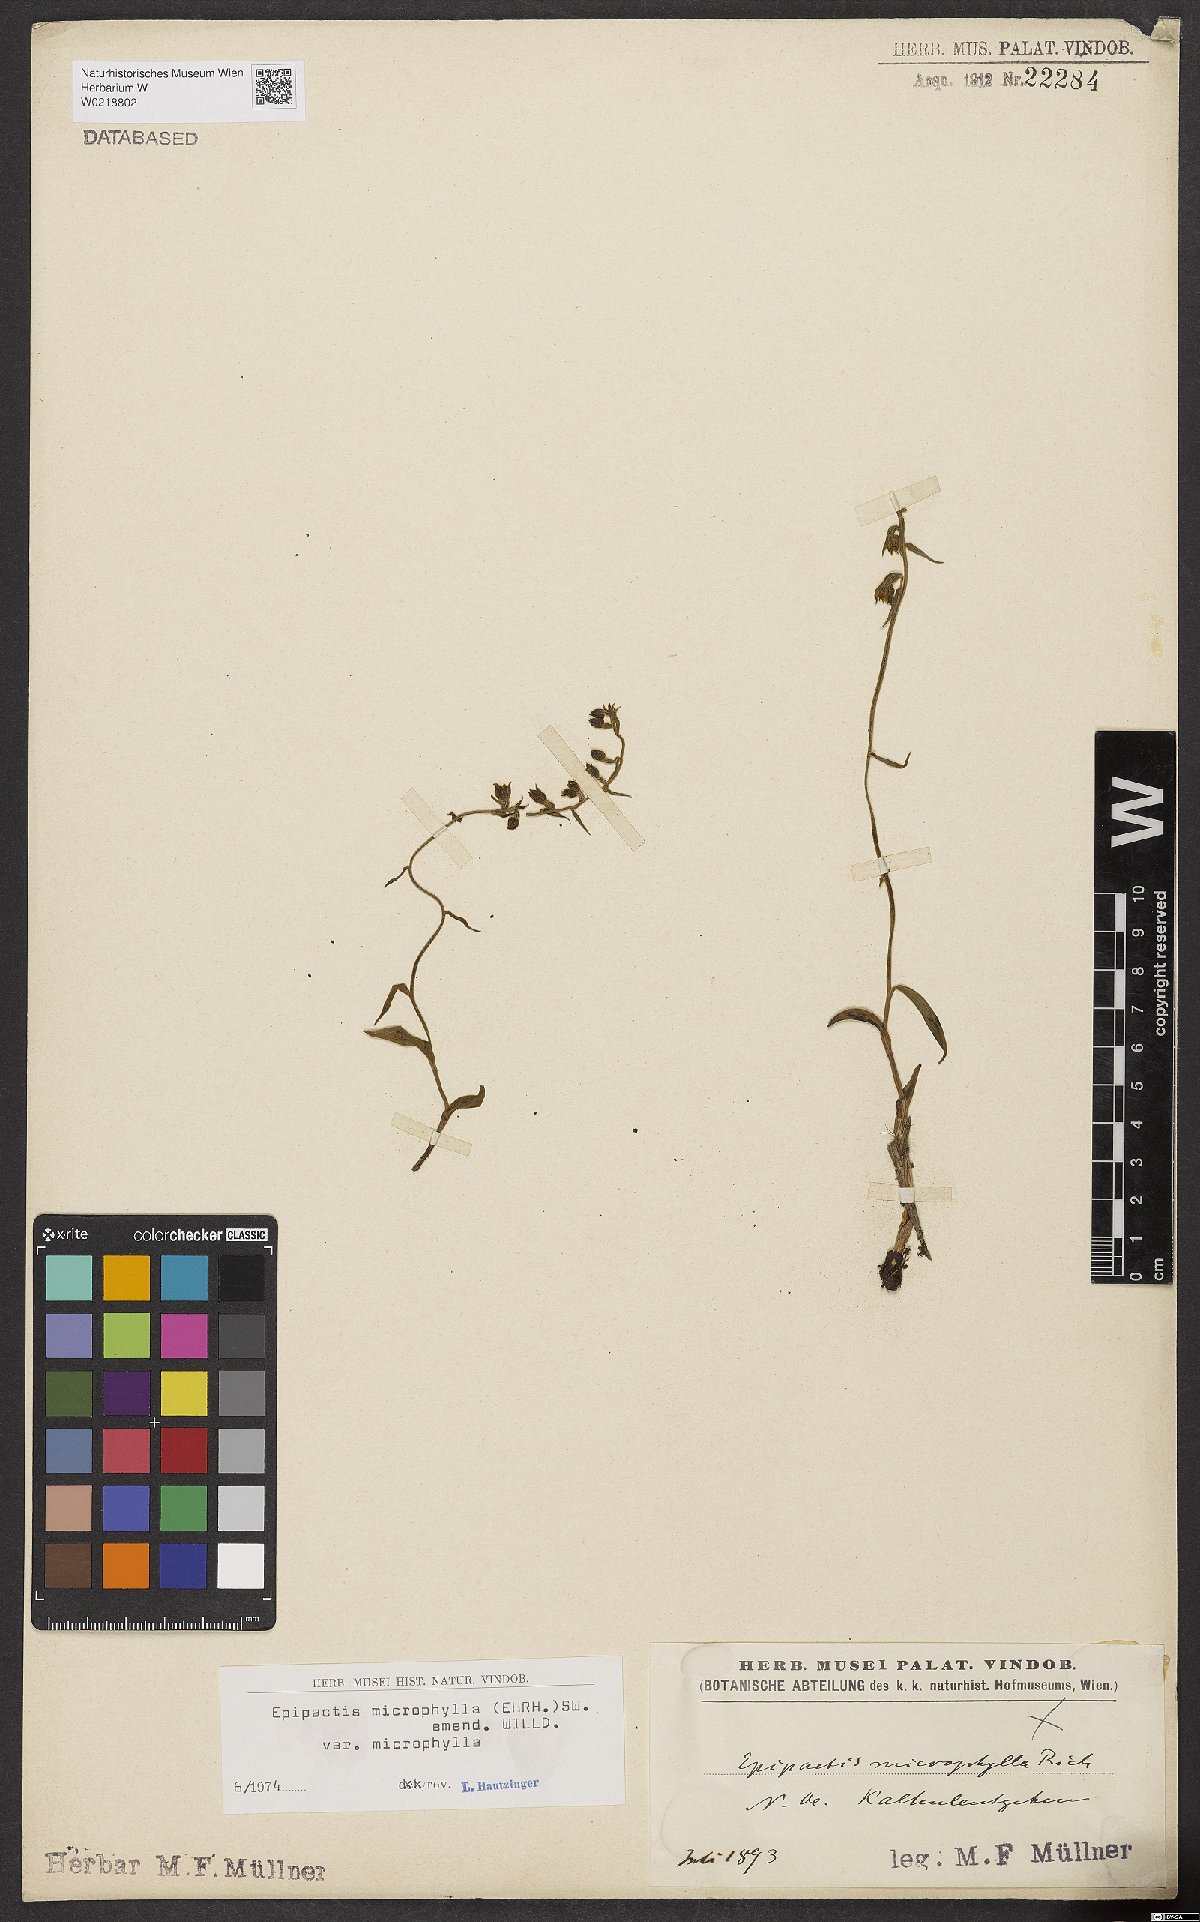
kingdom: Plantae
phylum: Tracheophyta
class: Liliopsida
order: Asparagales
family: Orchidaceae
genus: Epipactis
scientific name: Epipactis microphylla
